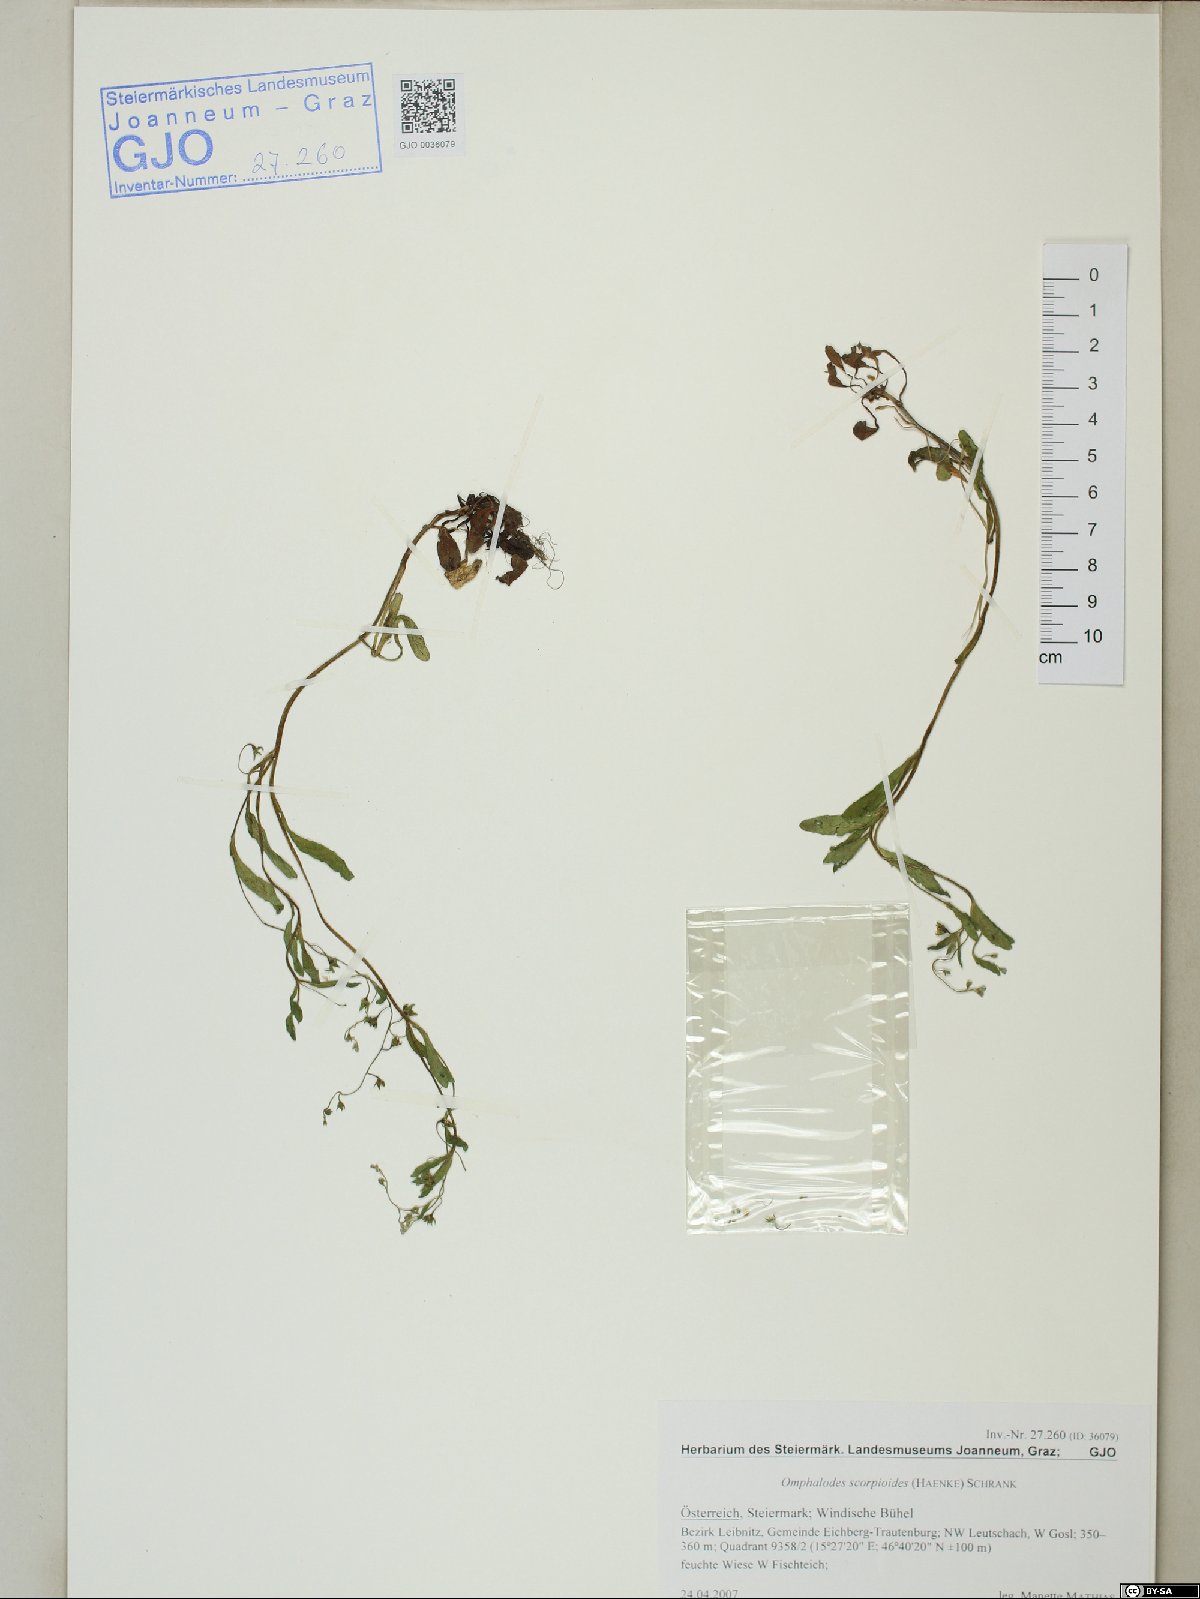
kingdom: Plantae
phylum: Tracheophyta
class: Magnoliopsida
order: Boraginales
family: Boraginaceae
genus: Memoremea
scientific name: Memoremea scorpioides
